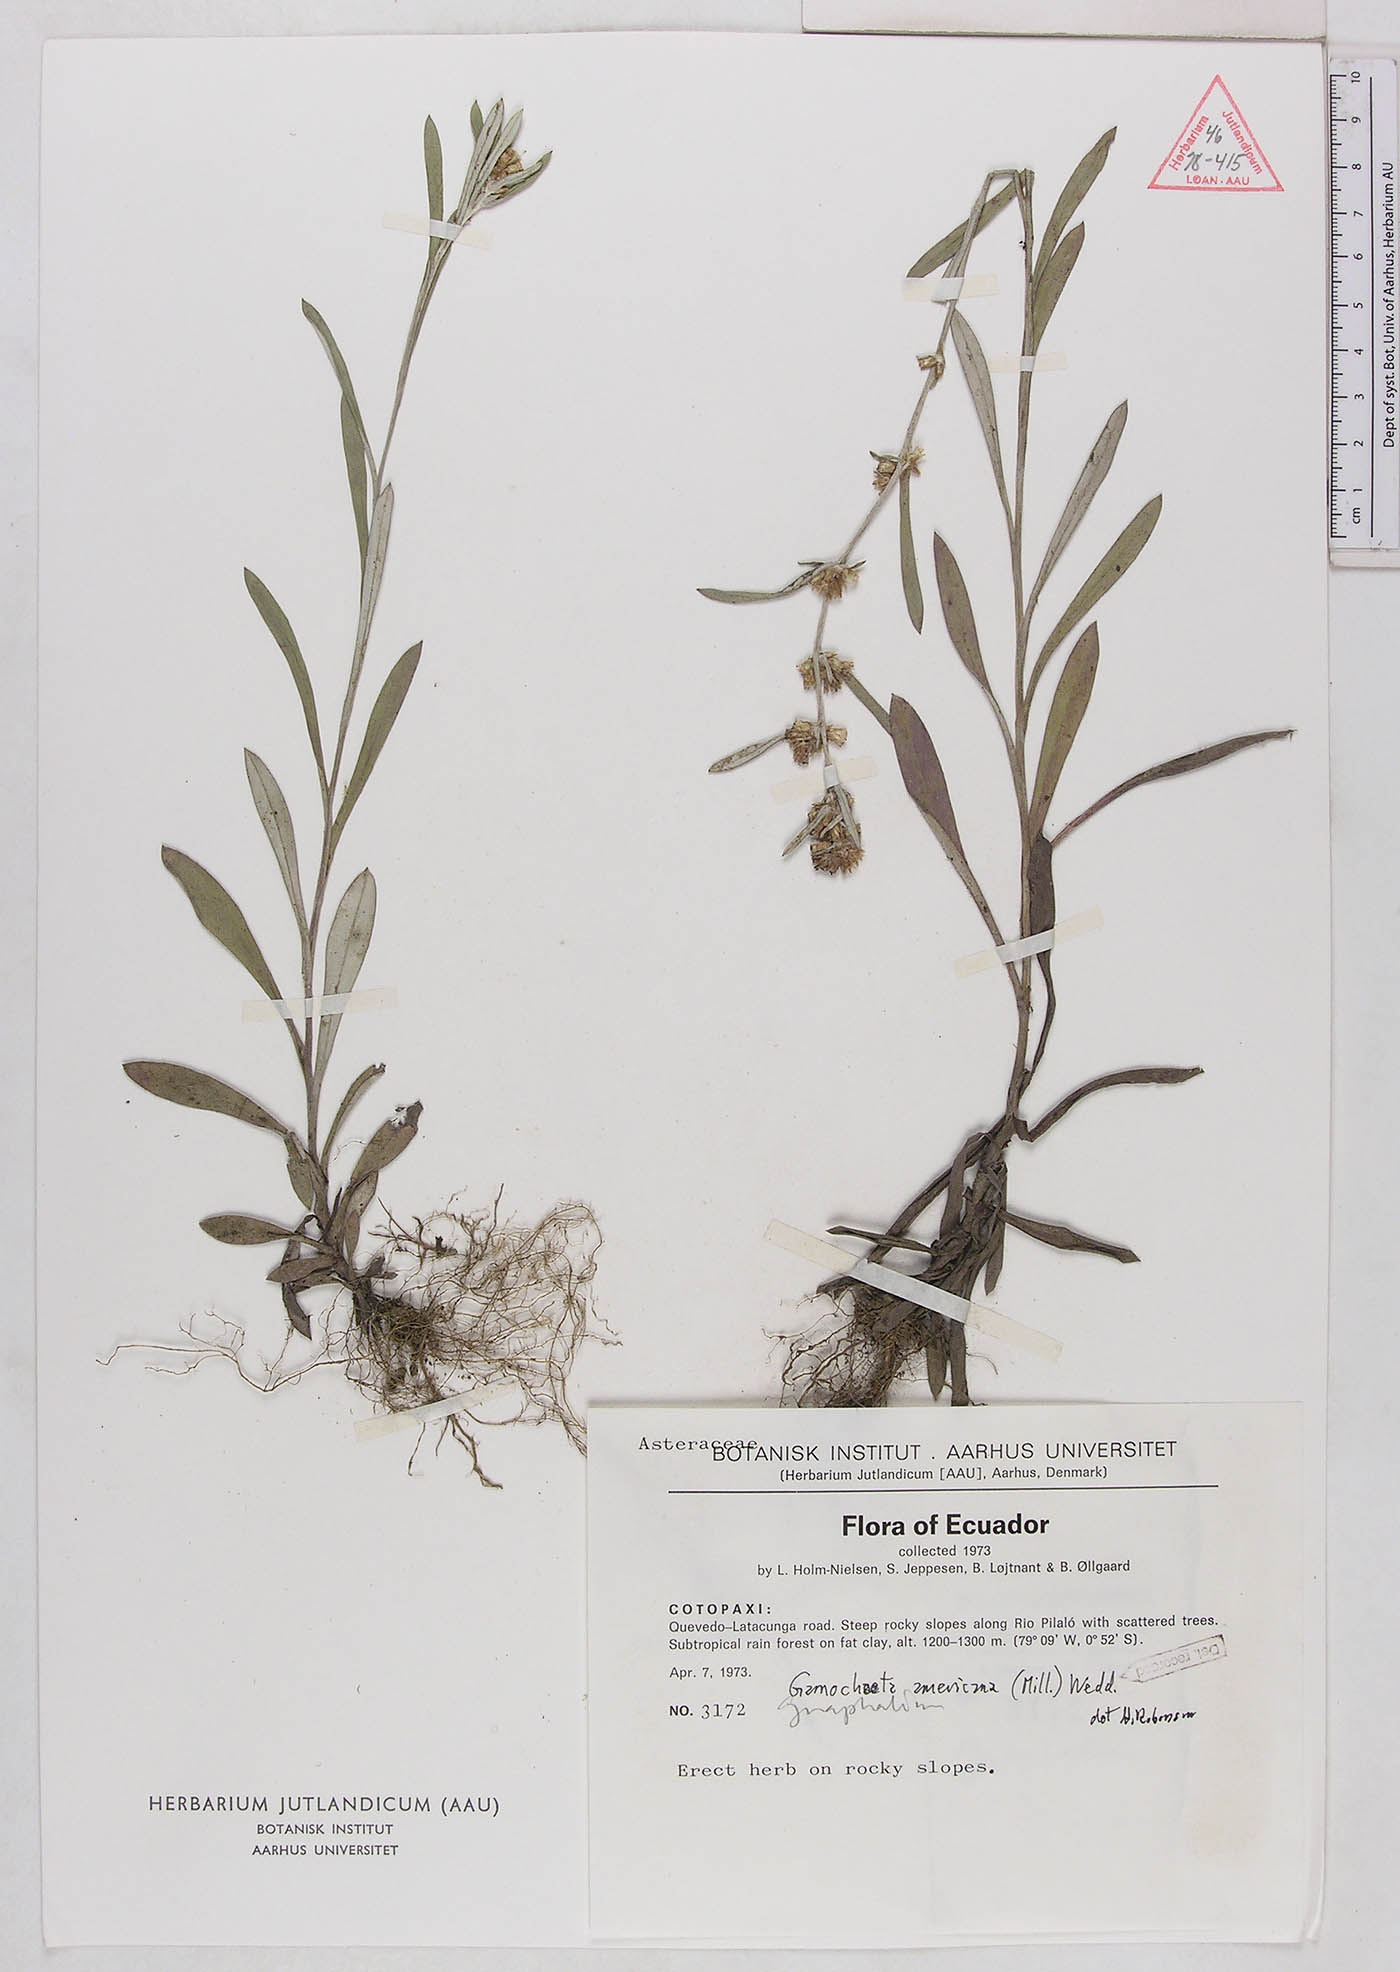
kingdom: Plantae
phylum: Tracheophyta
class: Magnoliopsida
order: Asterales
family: Asteraceae
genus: Gamochaeta
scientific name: Gamochaeta americana
